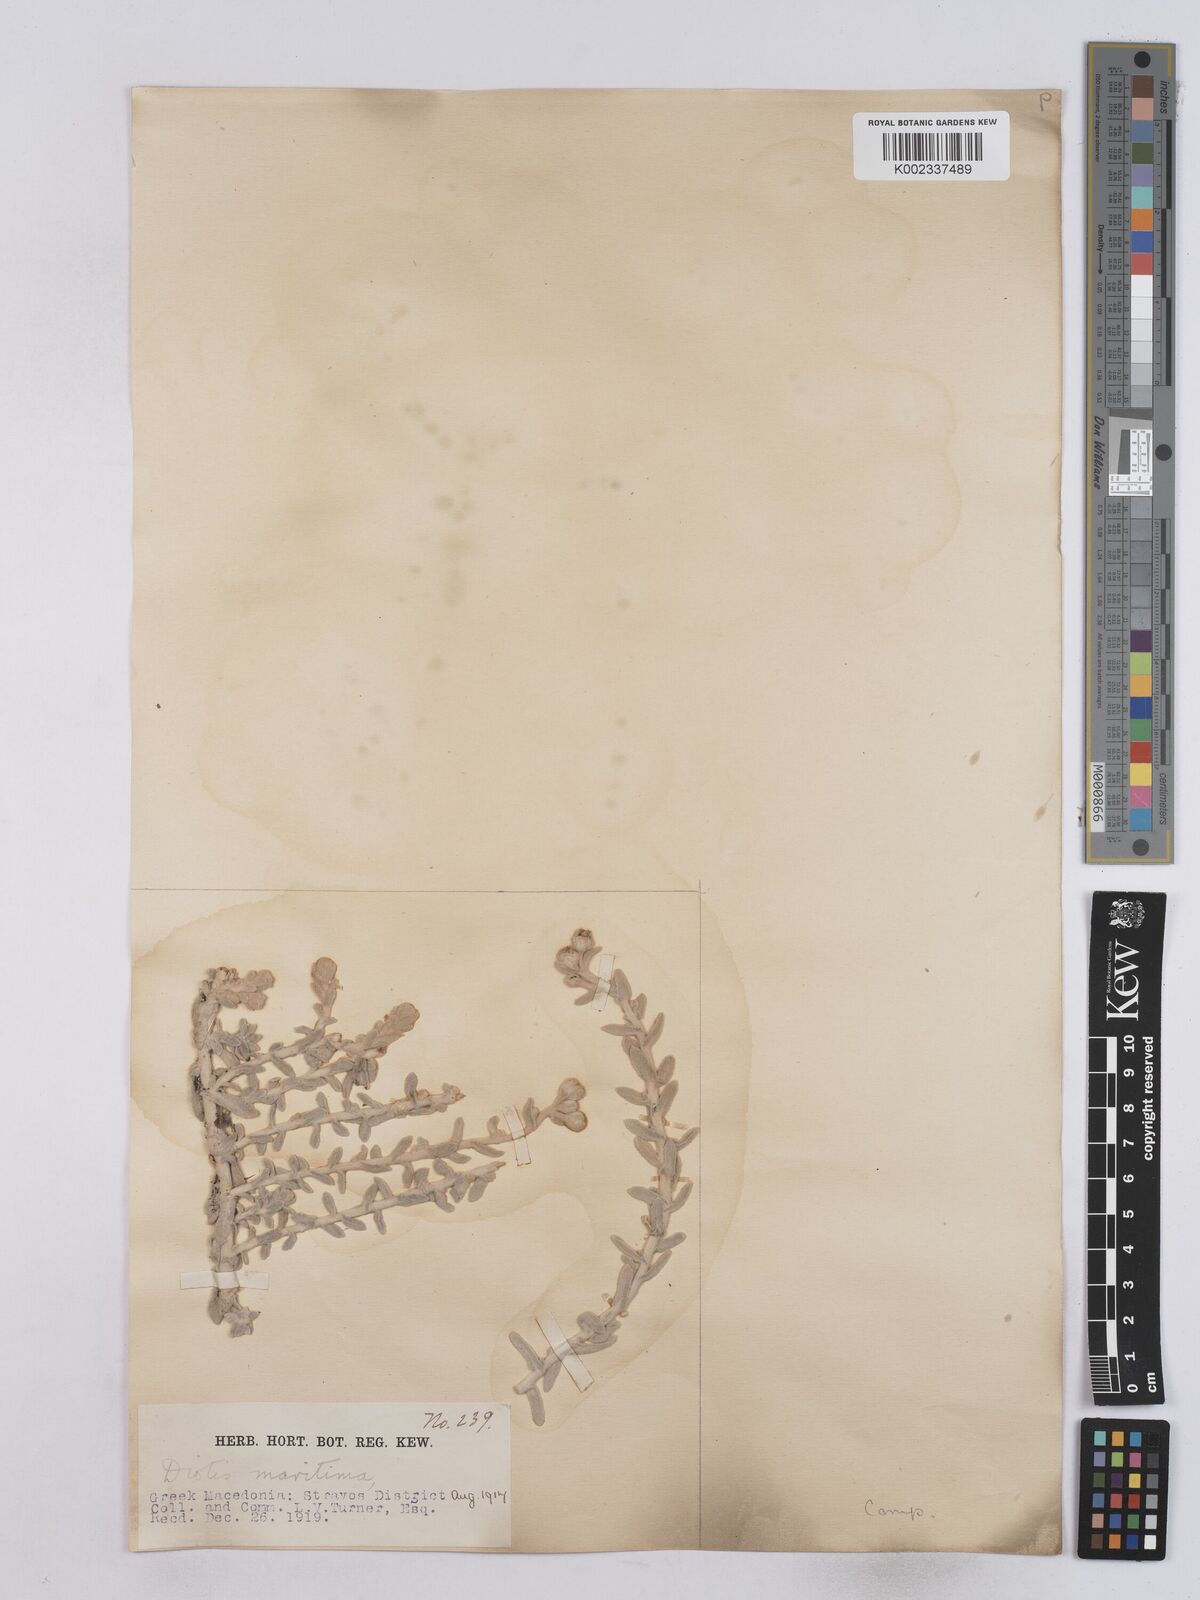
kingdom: Plantae
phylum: Tracheophyta
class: Magnoliopsida
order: Asterales
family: Asteraceae
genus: Achillea
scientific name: Achillea maritima
